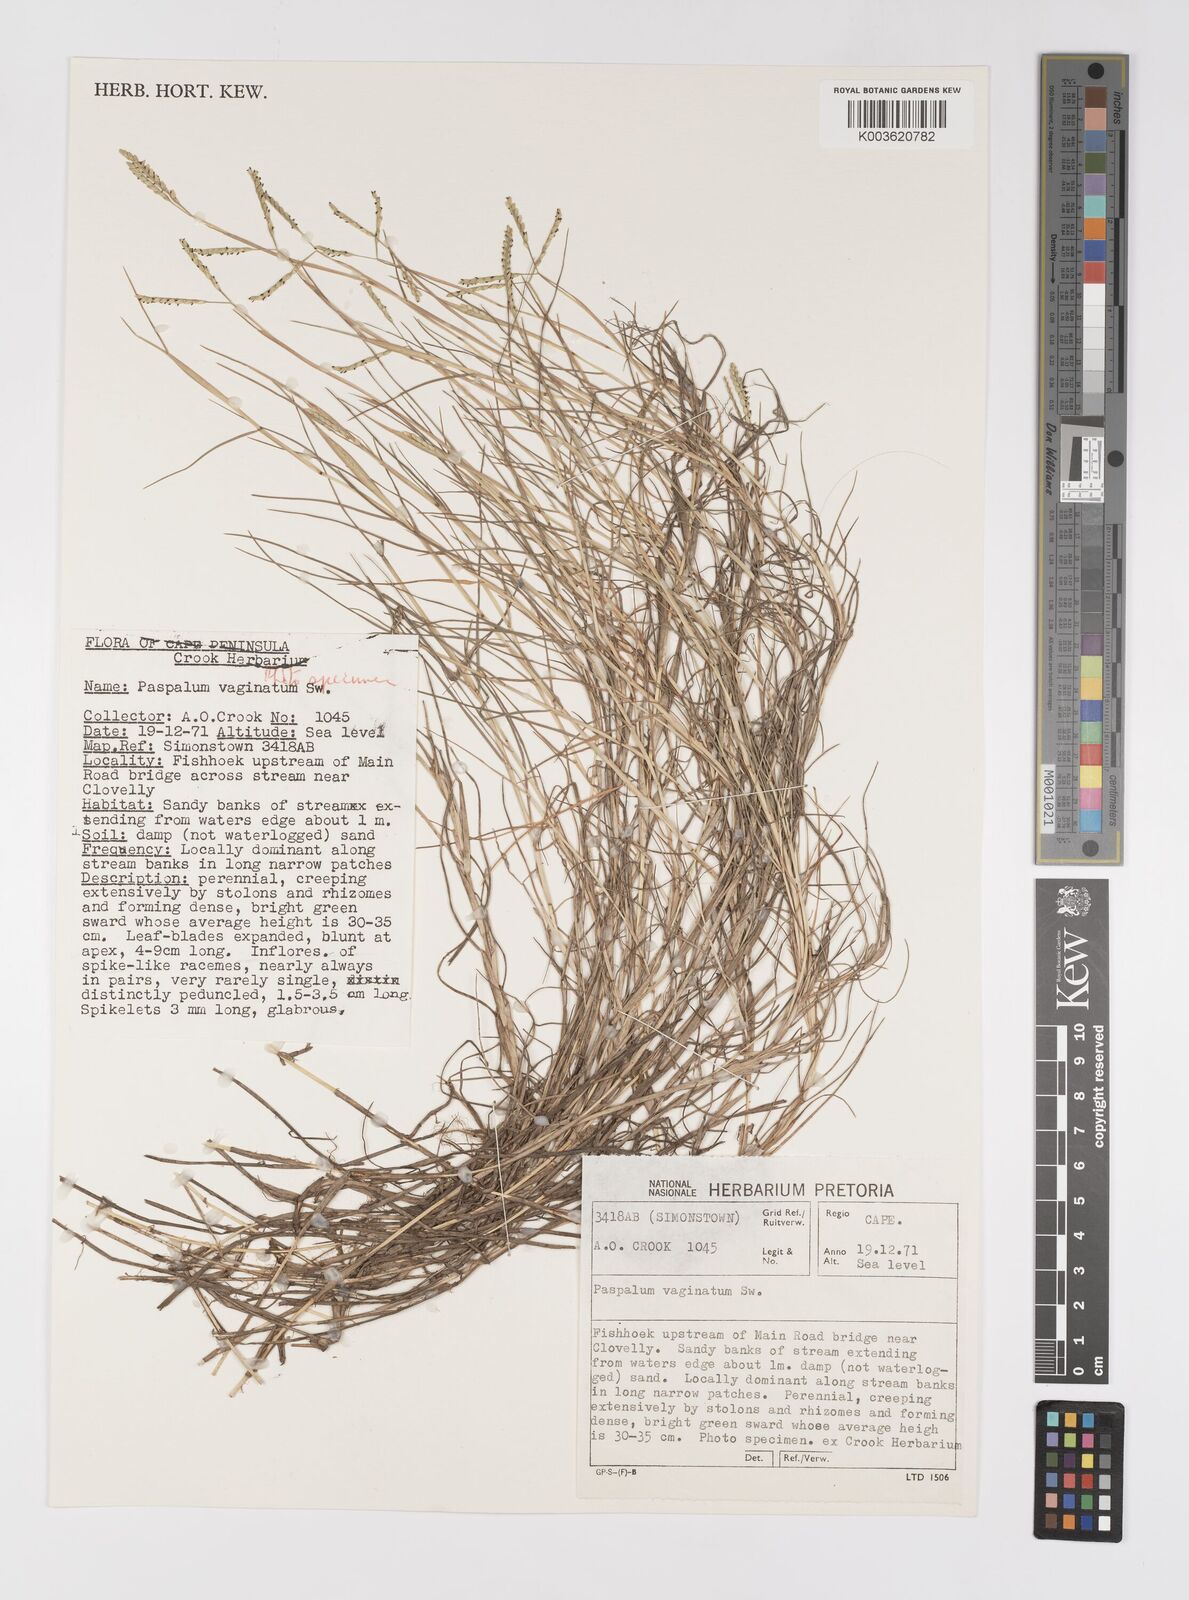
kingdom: Plantae
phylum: Tracheophyta
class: Liliopsida
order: Poales
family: Poaceae
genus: Paspalum
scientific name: Paspalum vaginatum
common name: Seashore paspalum
